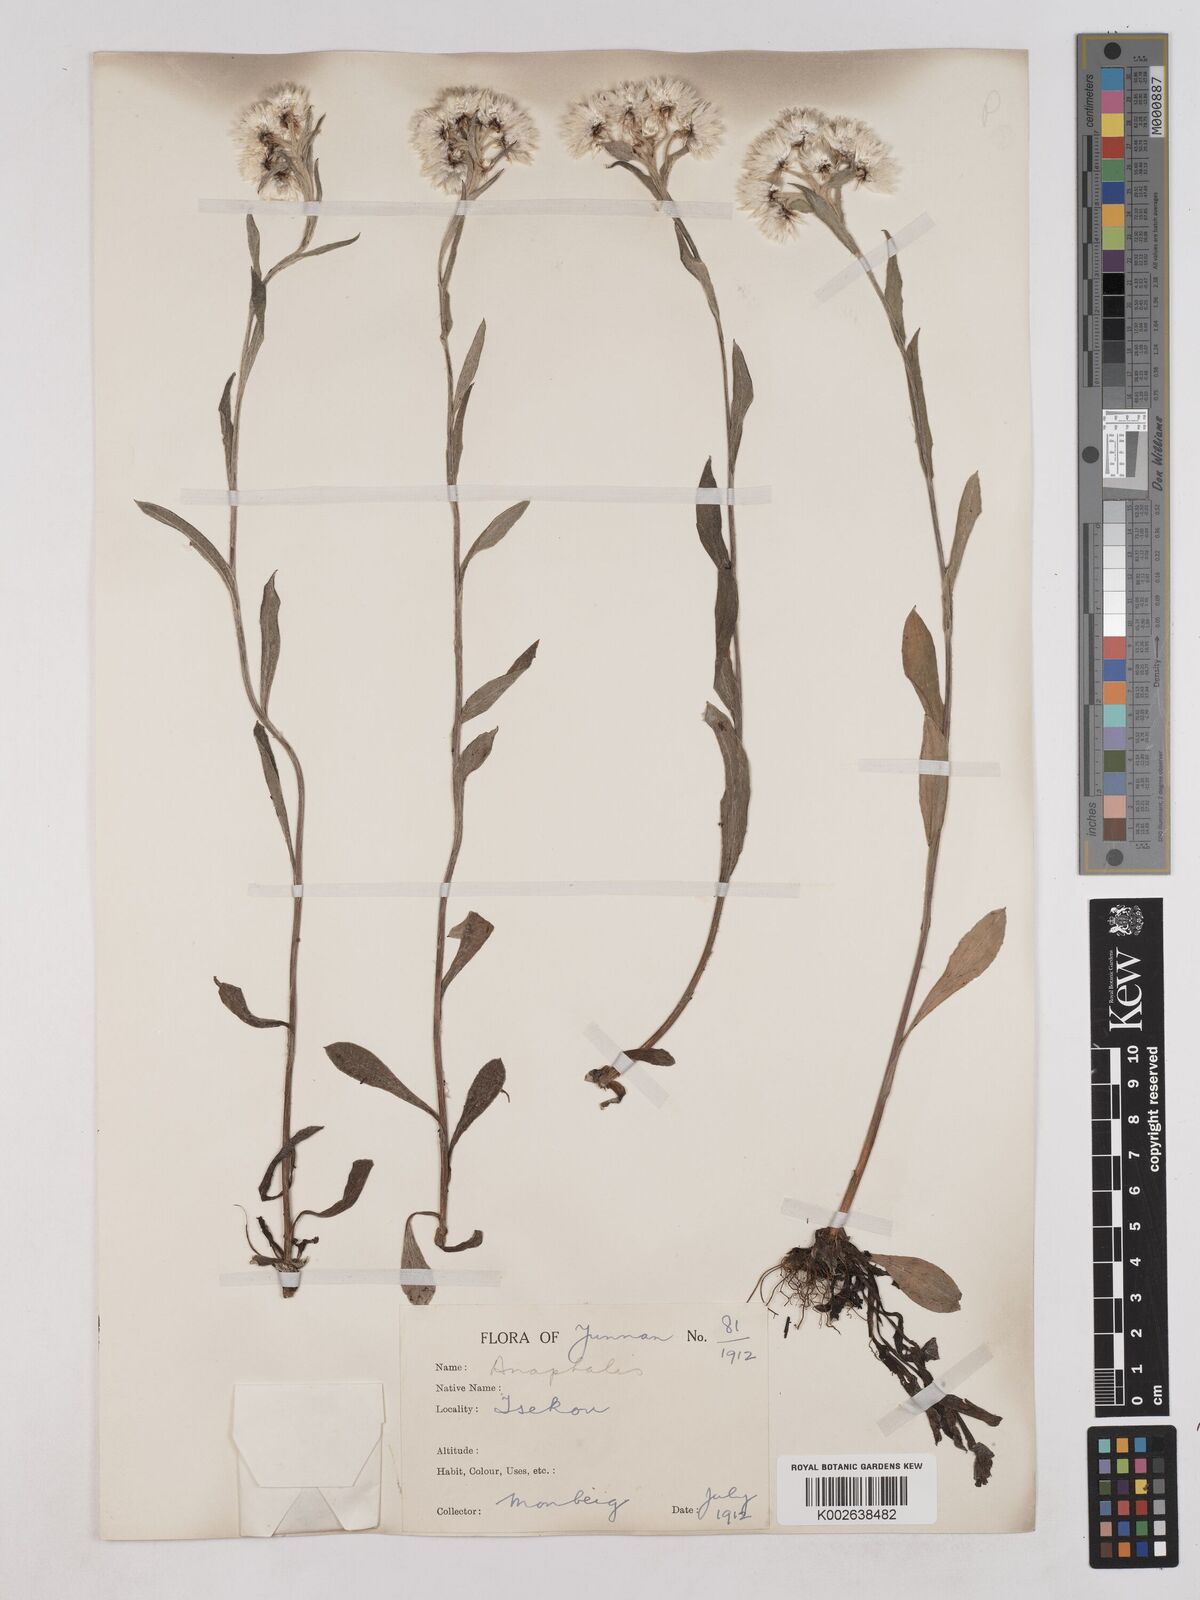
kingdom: Plantae
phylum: Tracheophyta
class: Magnoliopsida
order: Asterales
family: Asteraceae
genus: Anaphalis
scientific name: Anaphalis nepalensis
